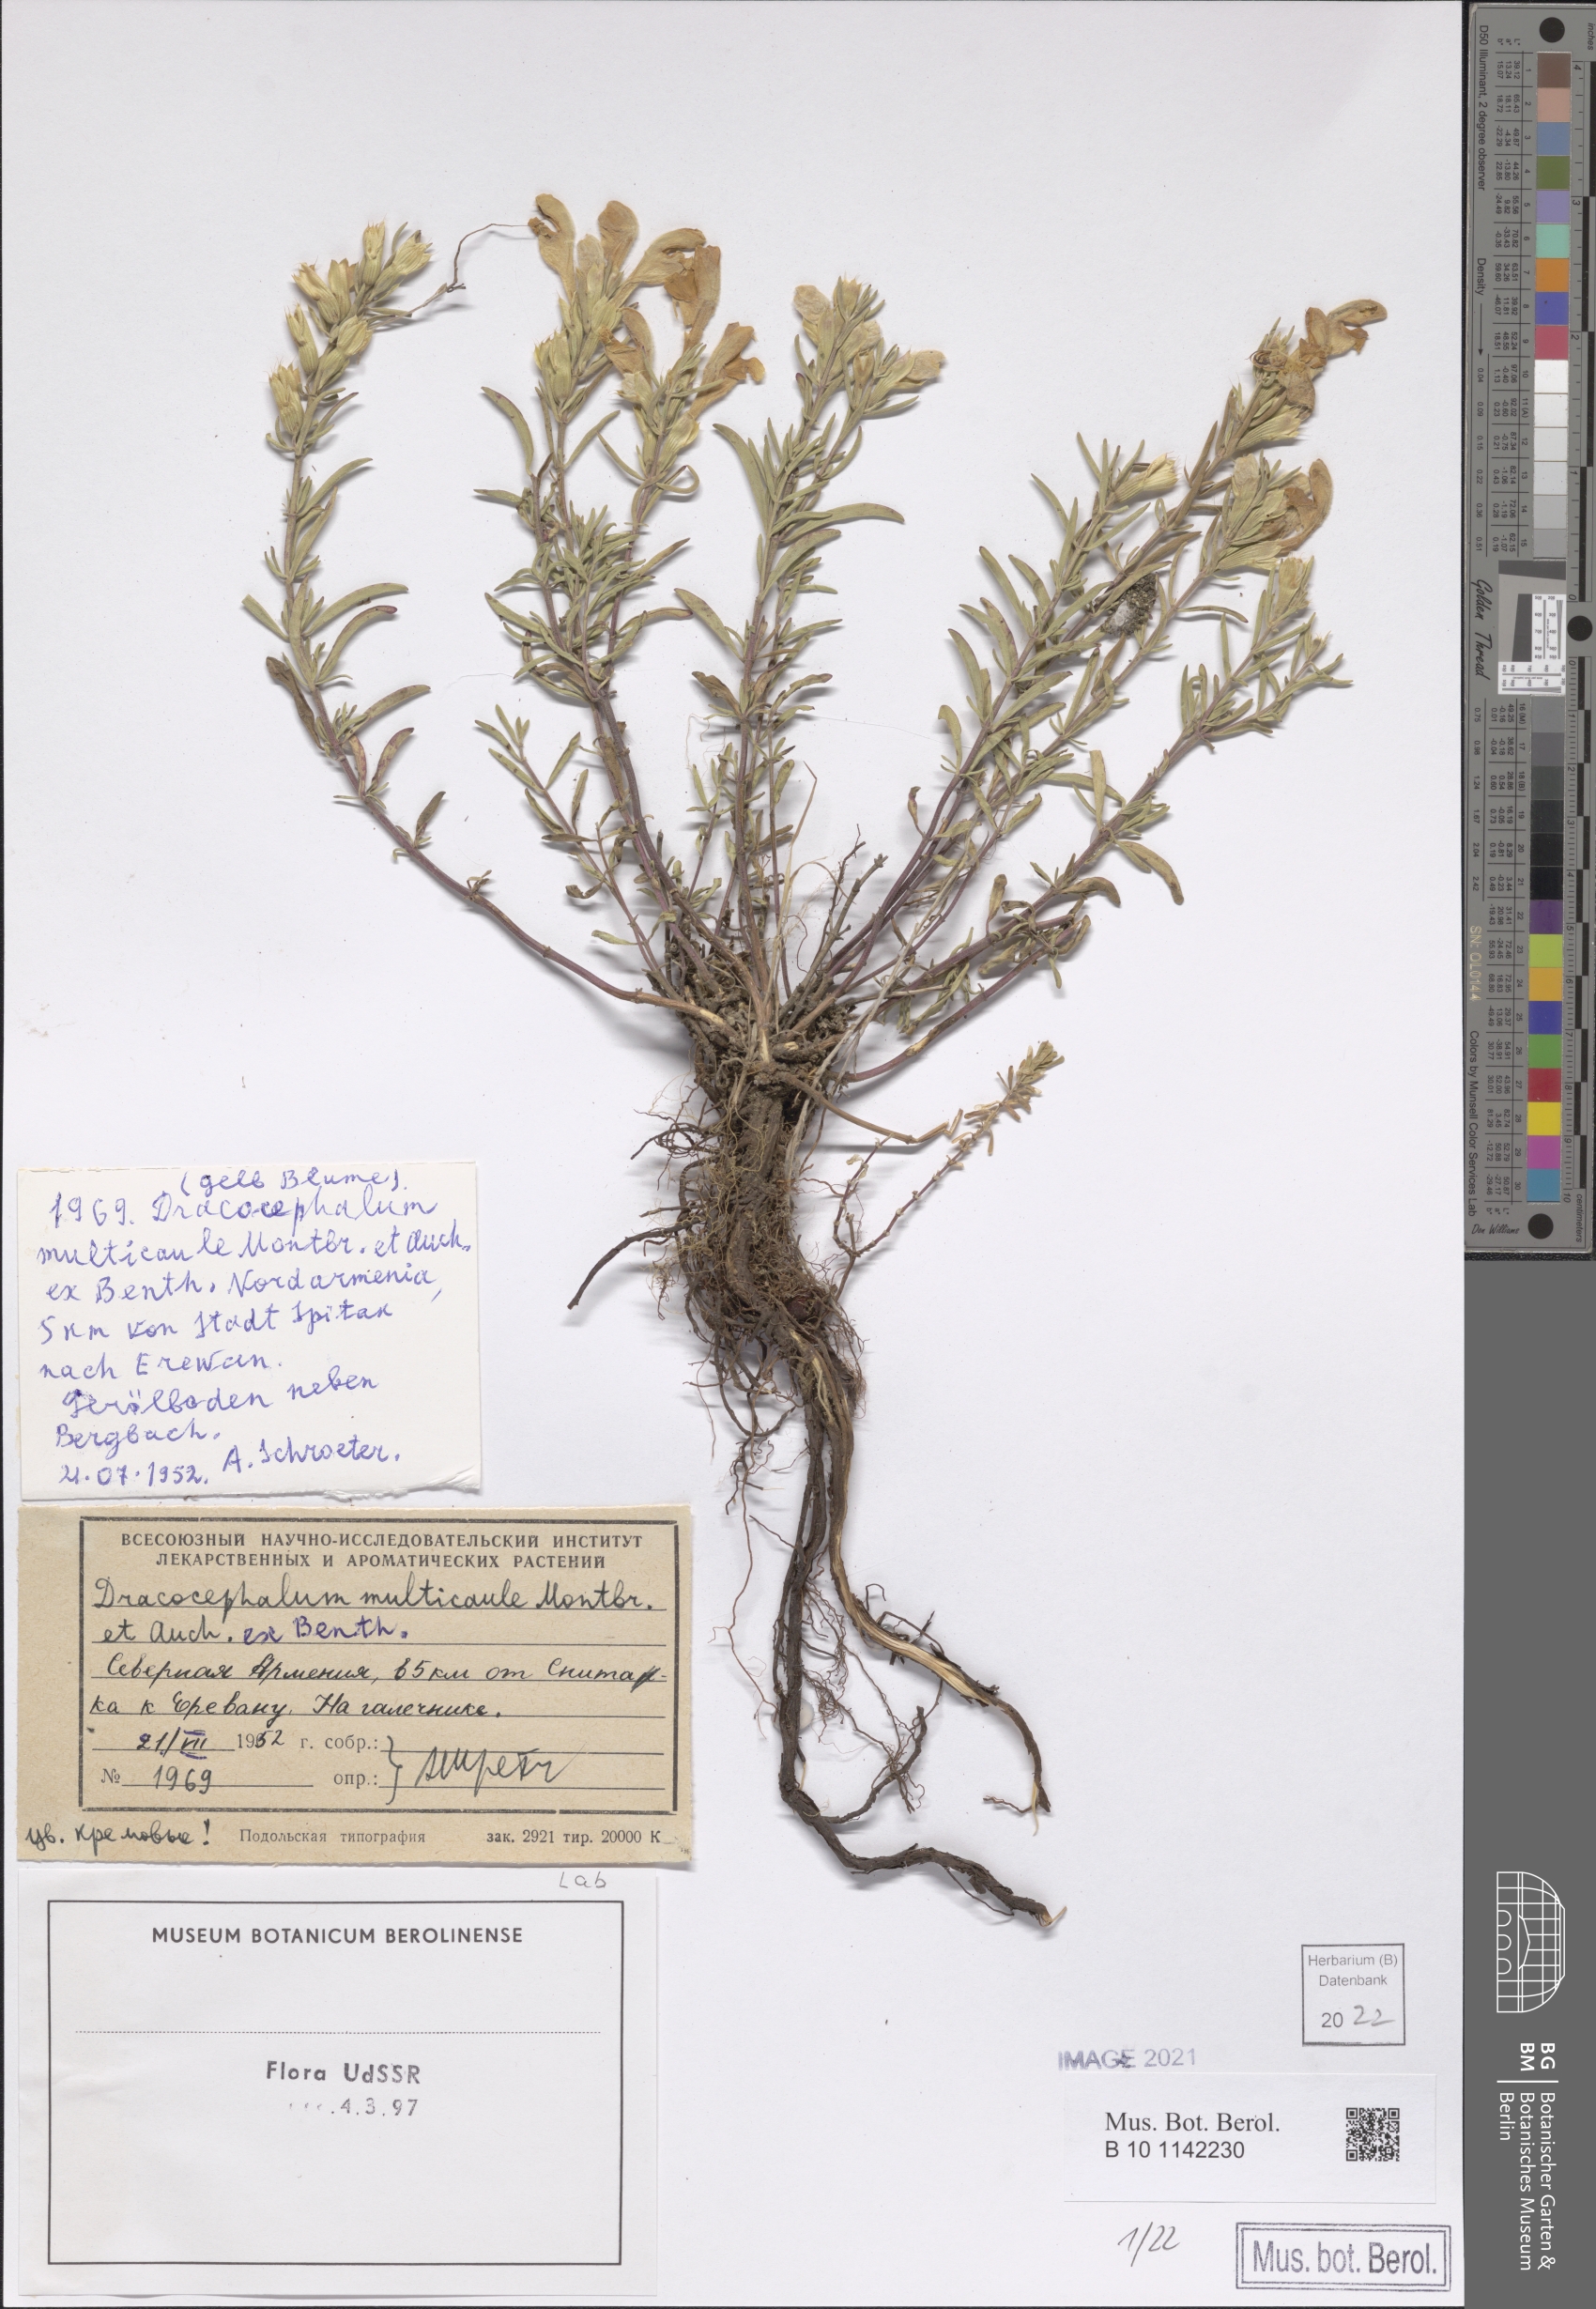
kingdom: Plantae
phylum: Tracheophyta
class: Magnoliopsida
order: Lamiales
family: Lamiaceae
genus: Dracocephalum
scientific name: Dracocephalum multicaule
